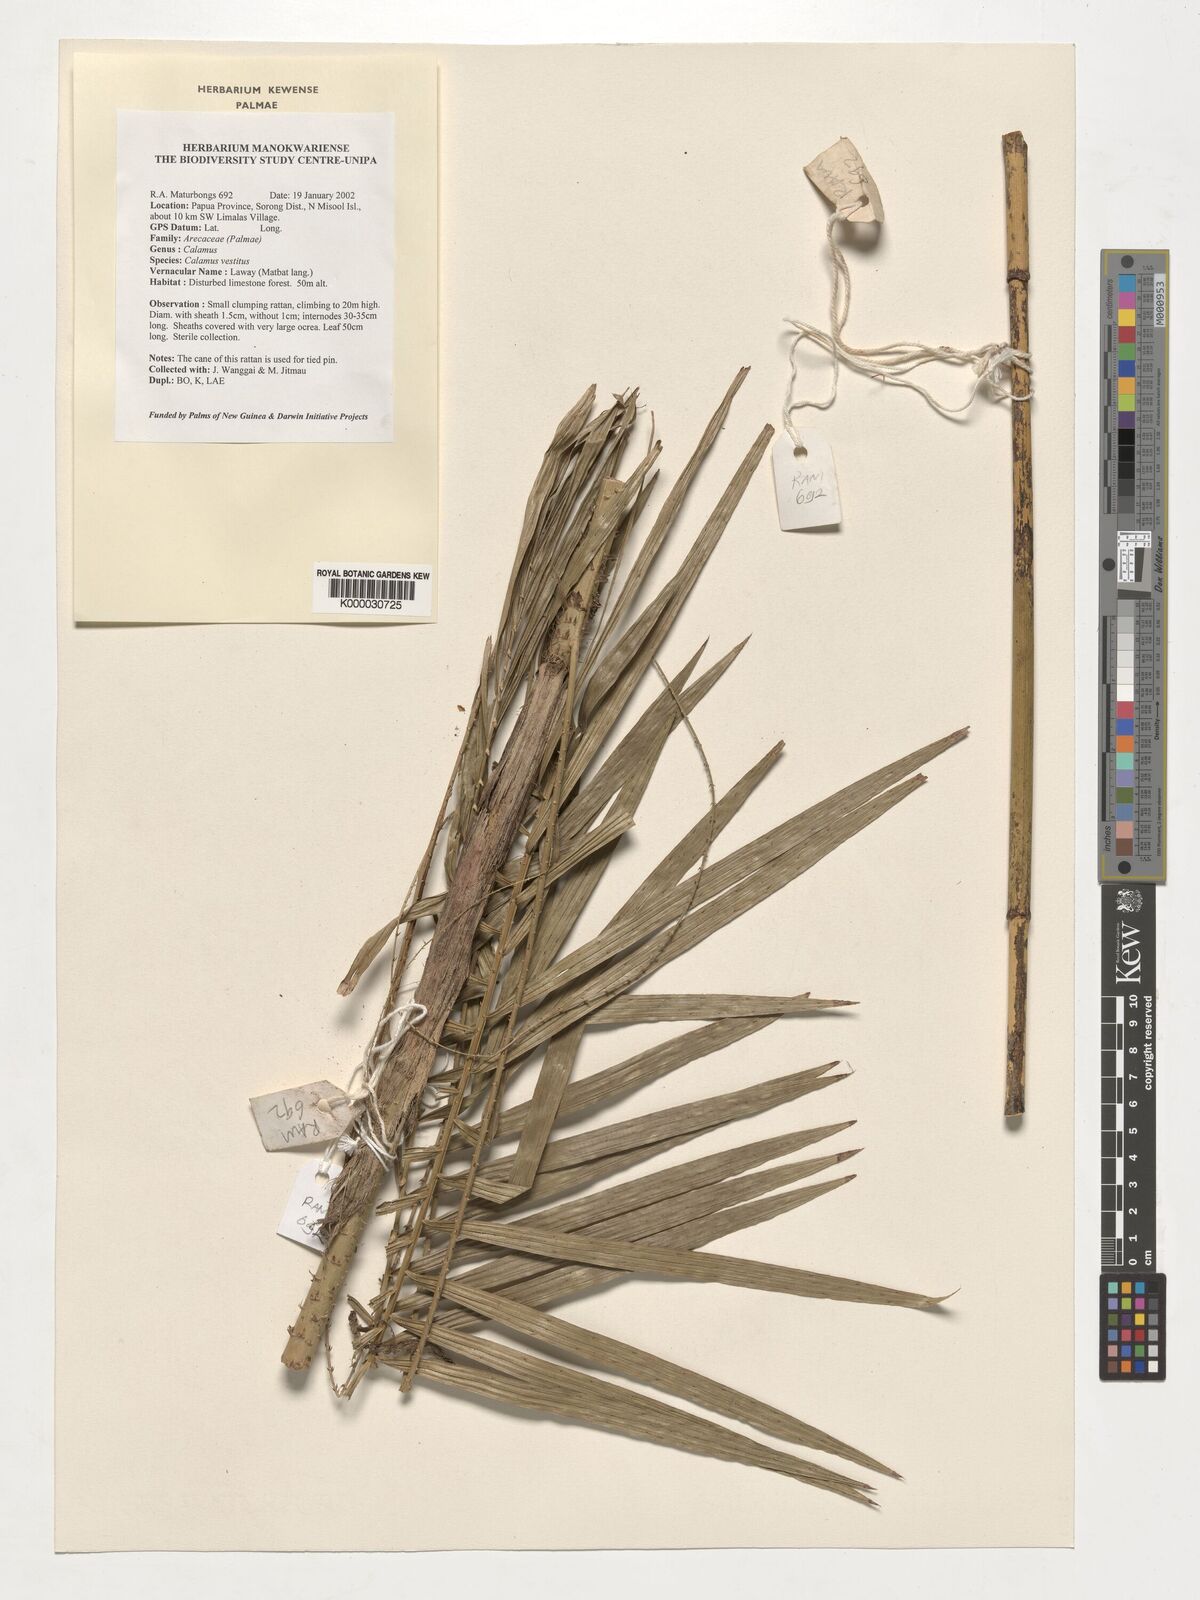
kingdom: Plantae
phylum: Tracheophyta
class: Liliopsida
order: Arecales
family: Arecaceae
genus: Calamus
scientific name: Calamus vestitus
